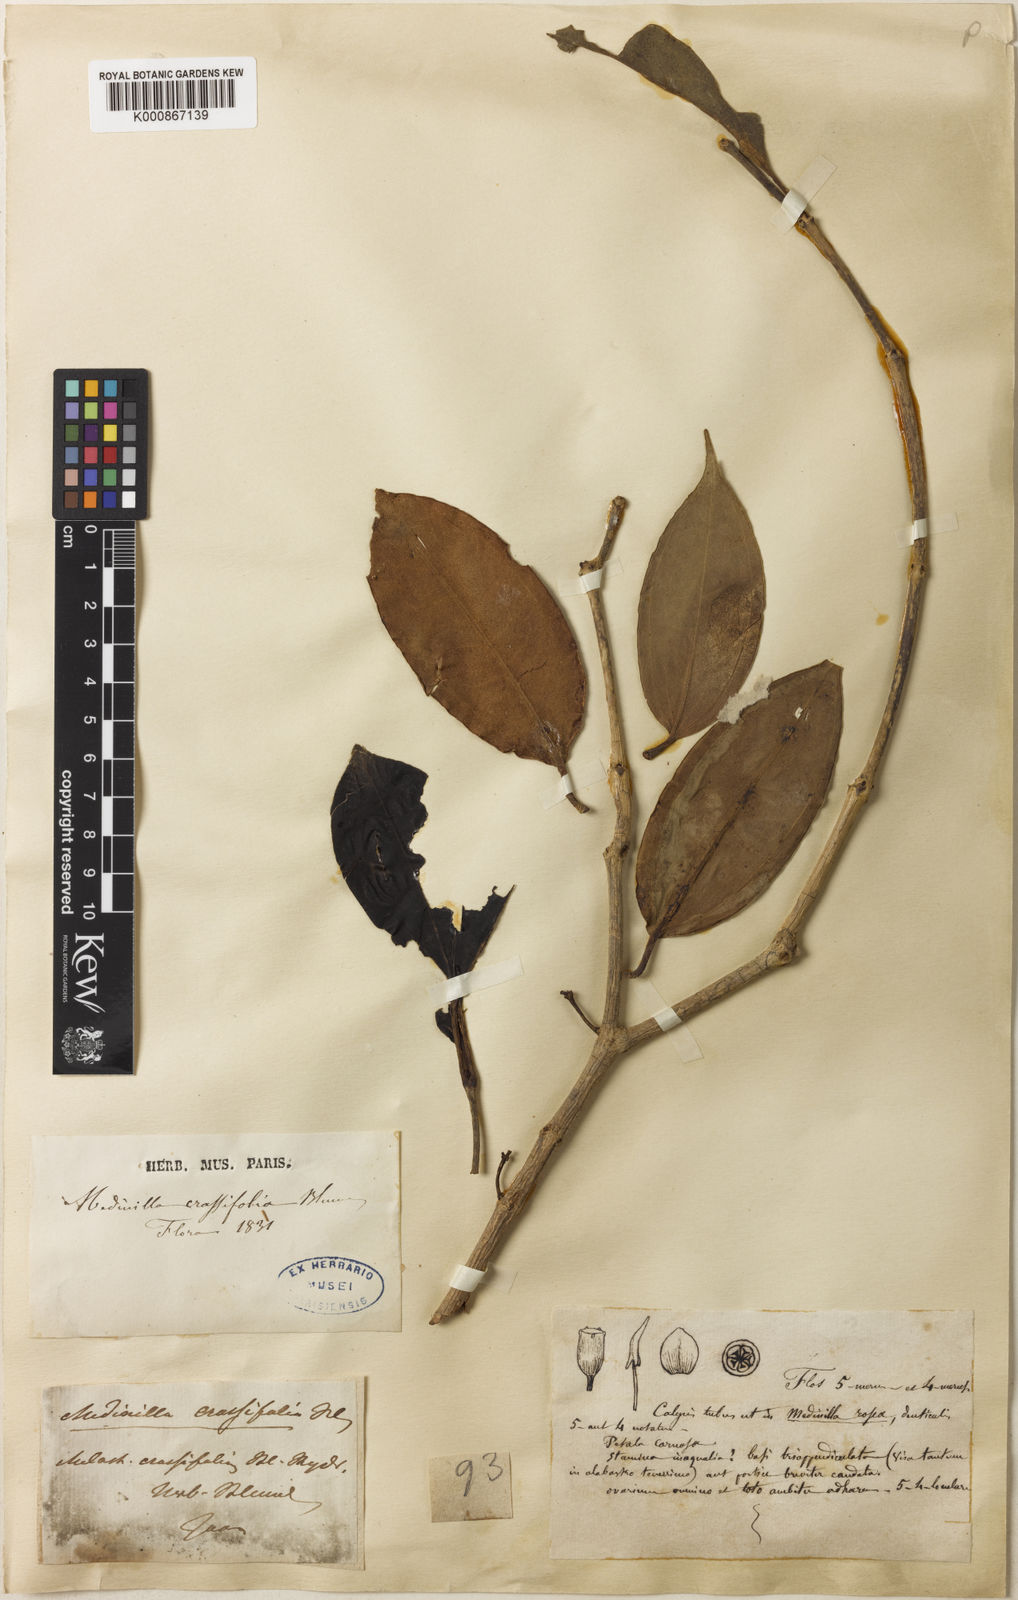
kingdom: Plantae
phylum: Tracheophyta
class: Magnoliopsida
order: Myrtales
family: Melastomataceae
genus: Medinilla
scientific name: Medinilla crassifolia
